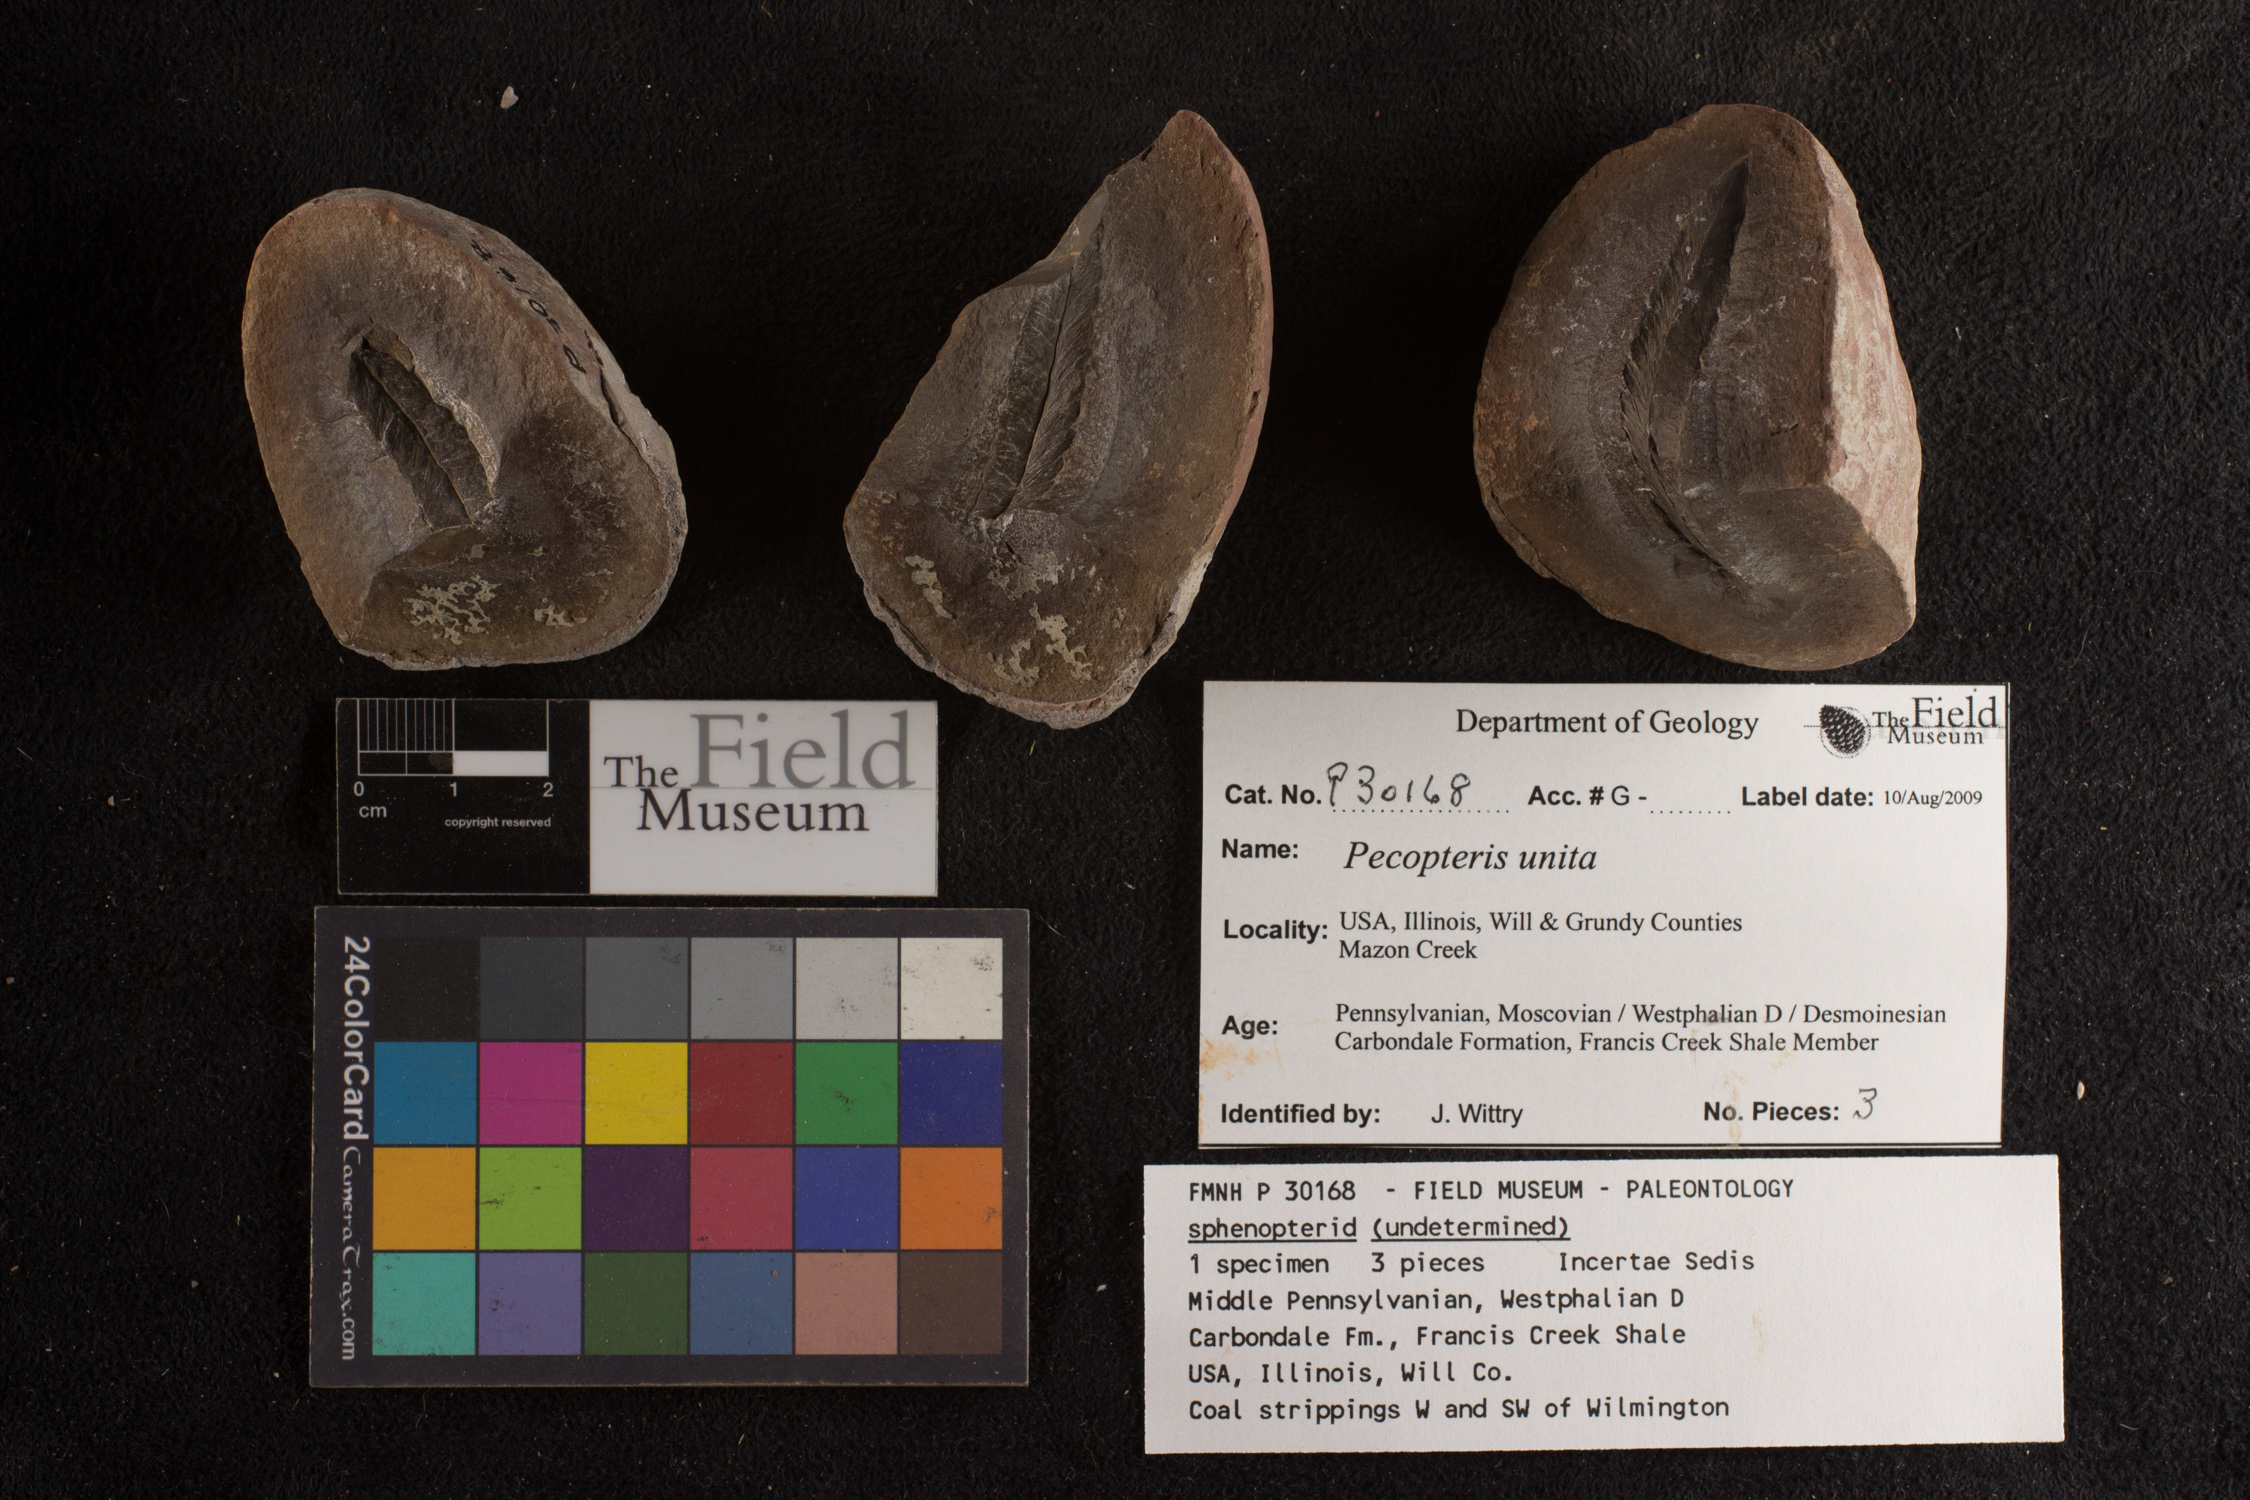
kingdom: Plantae
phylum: Tracheophyta
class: Polypodiopsida
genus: Diplazites
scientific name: Diplazites
